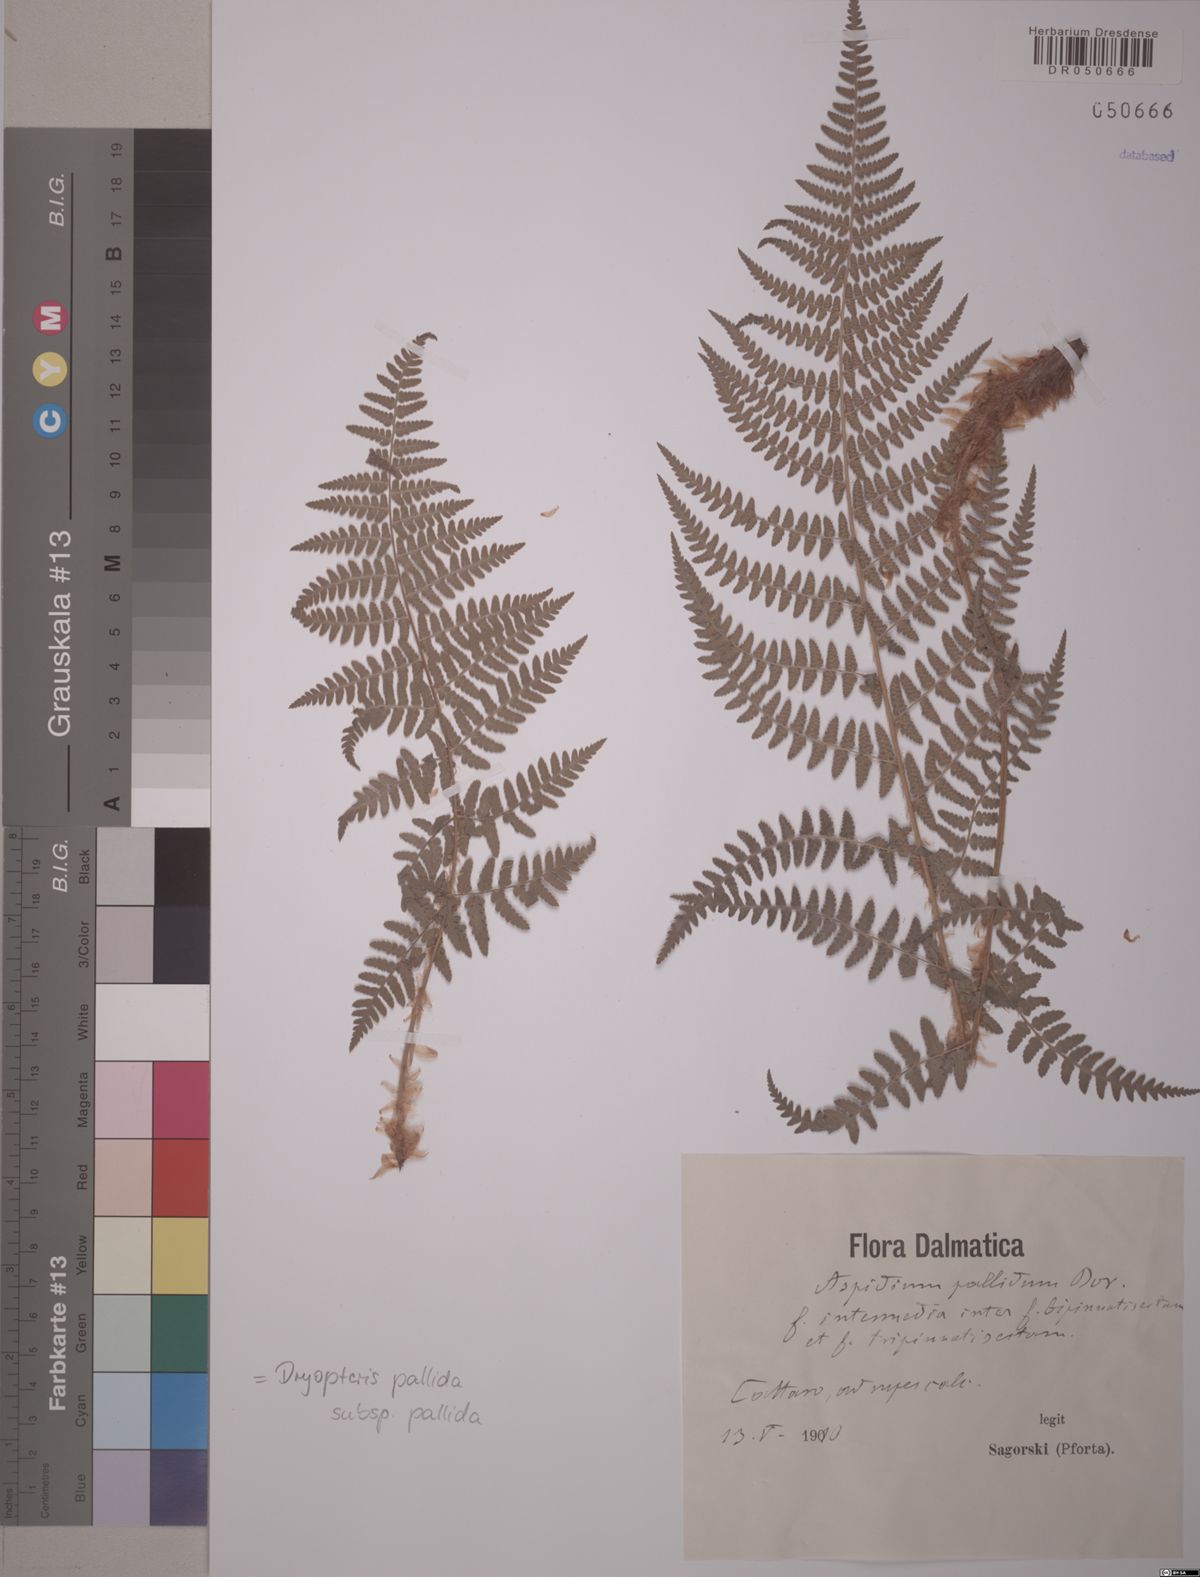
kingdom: Plantae
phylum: Tracheophyta
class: Polypodiopsida
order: Polypodiales
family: Dryopteridaceae
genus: Dryopteris
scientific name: Dryopteris pallida
